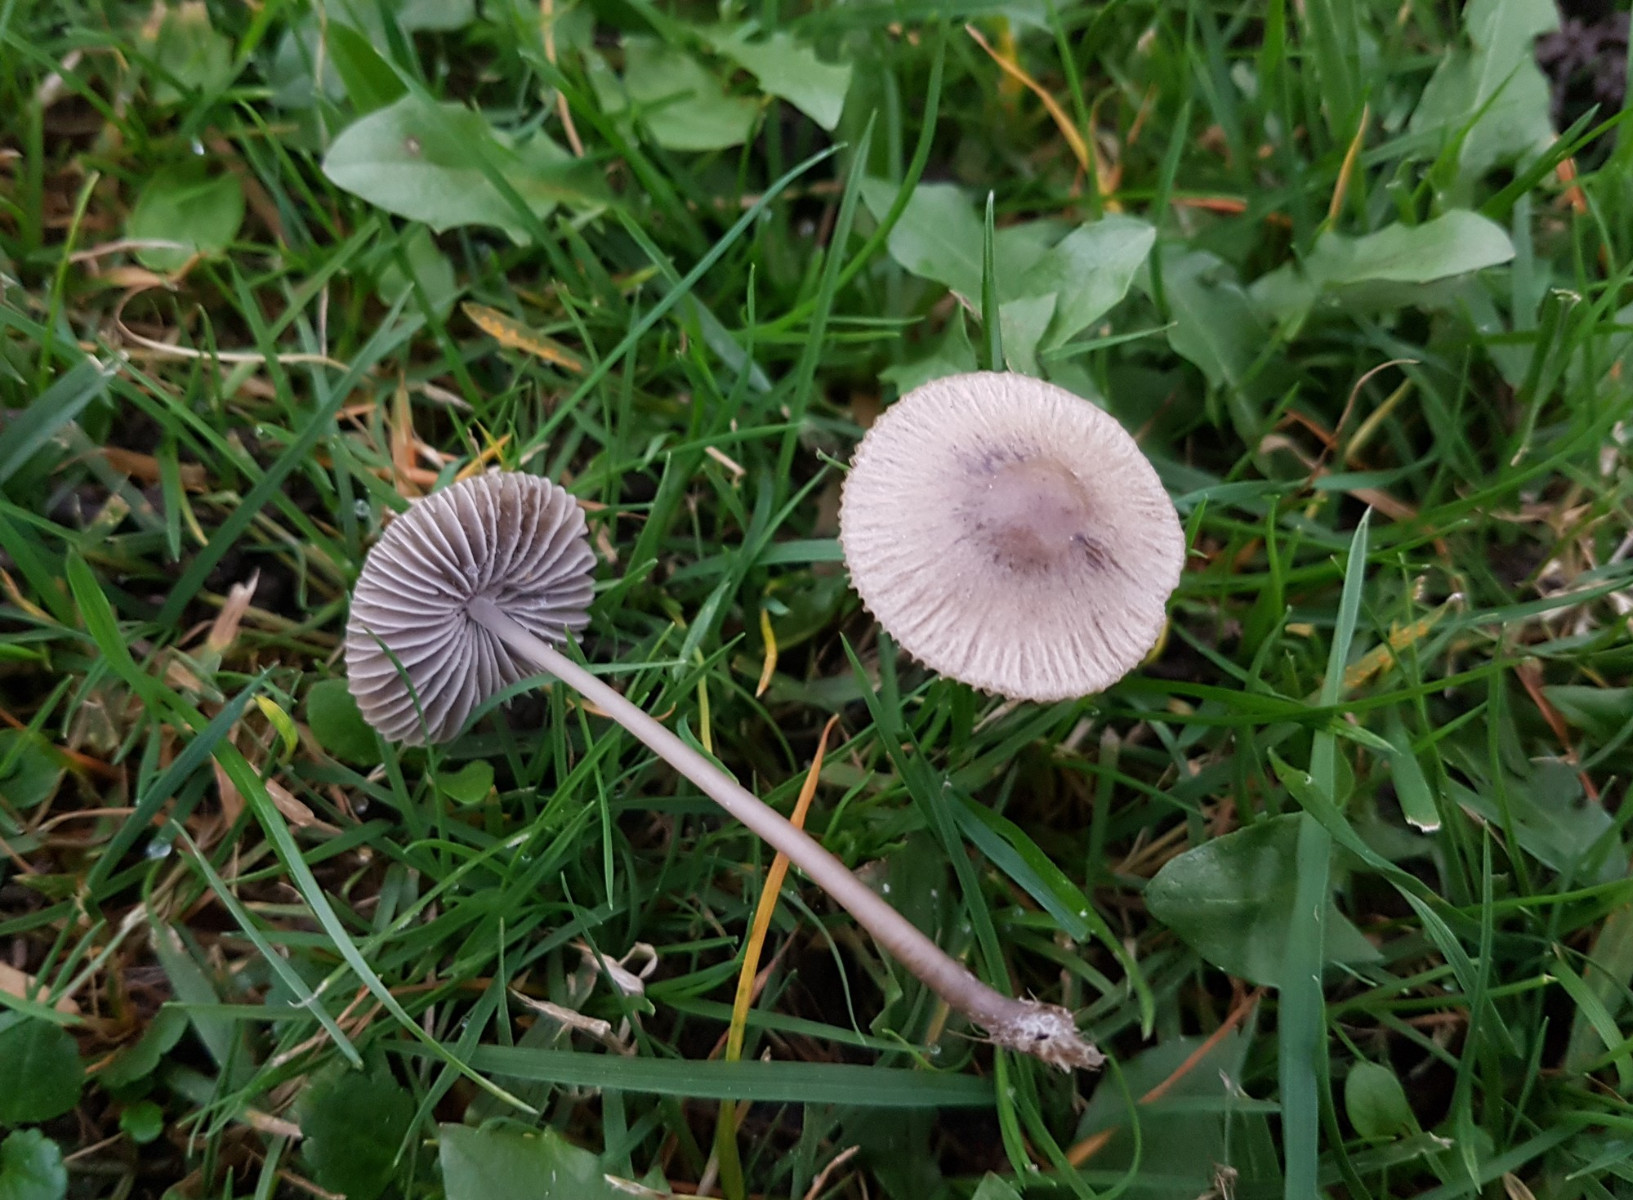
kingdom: Fungi
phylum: Basidiomycota
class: Agaricomycetes
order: Agaricales
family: Mycenaceae
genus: Mycena
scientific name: Mycena aetites
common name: plæne-huesvamp
